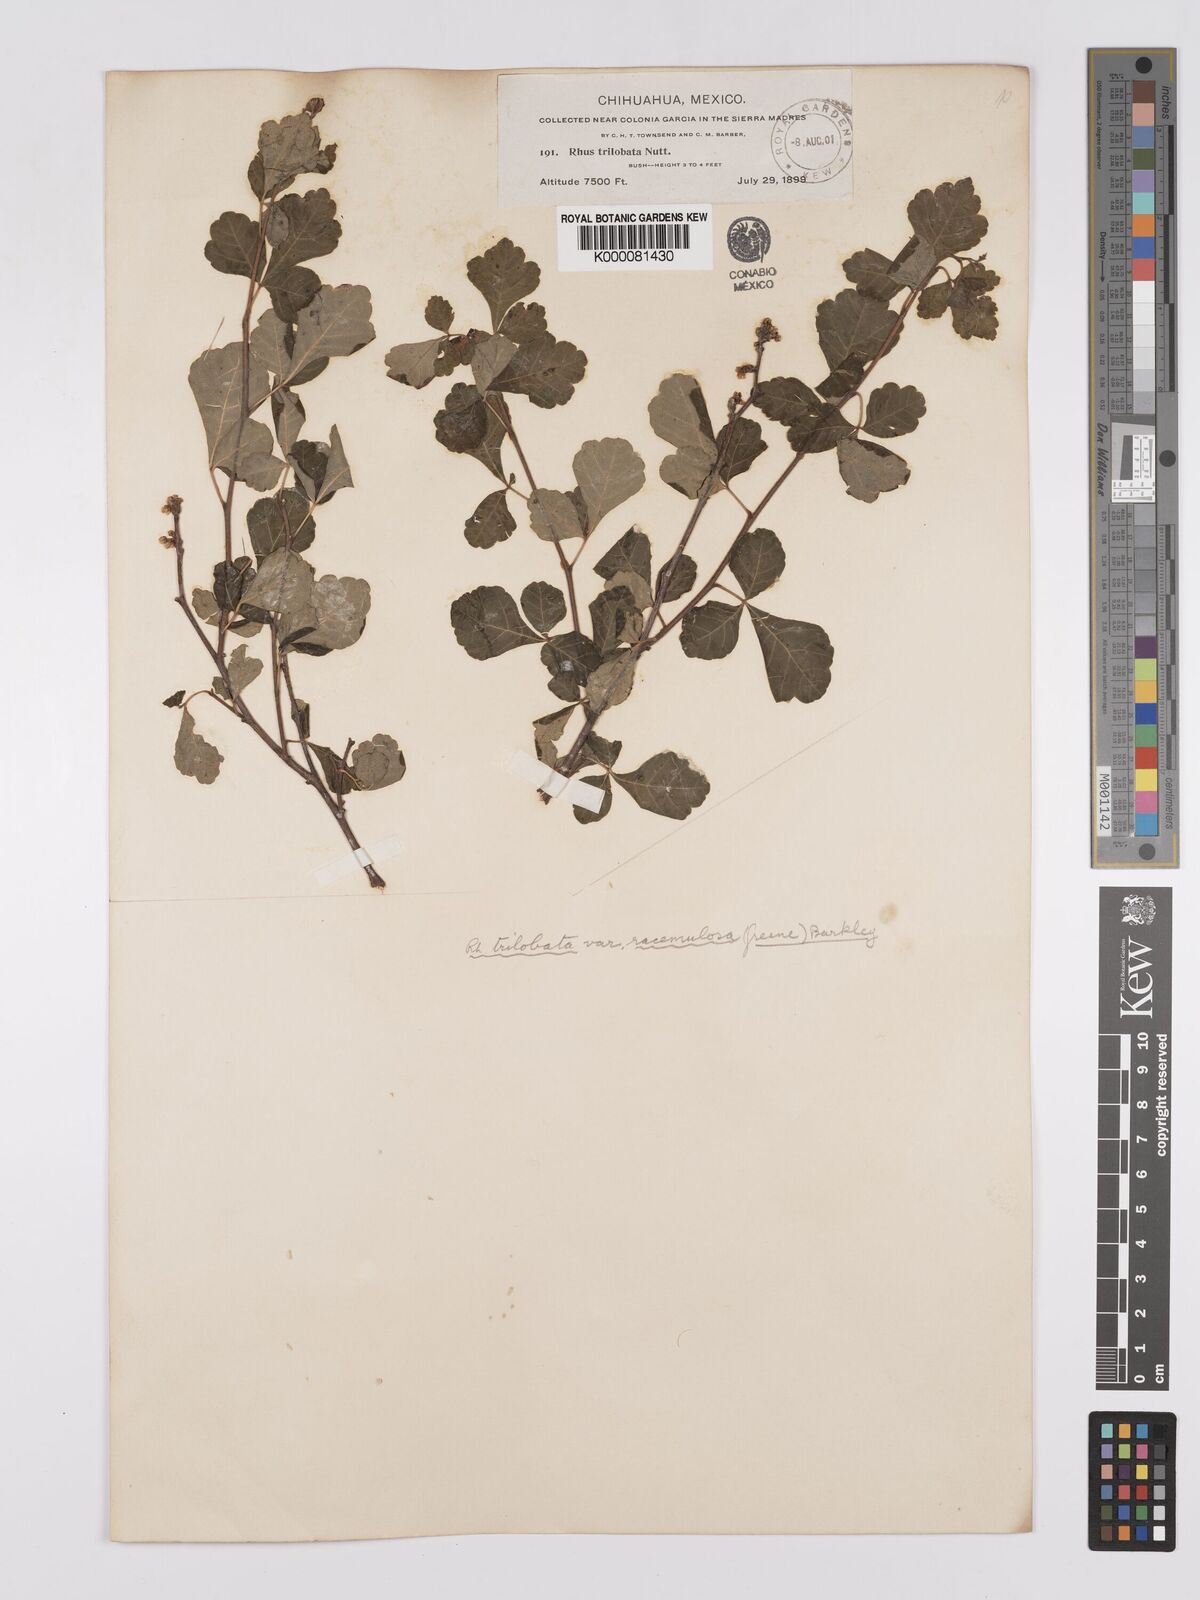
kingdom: Plantae
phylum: Tracheophyta
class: Magnoliopsida
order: Sapindales
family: Anacardiaceae
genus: Rhus
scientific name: Rhus trilobata
